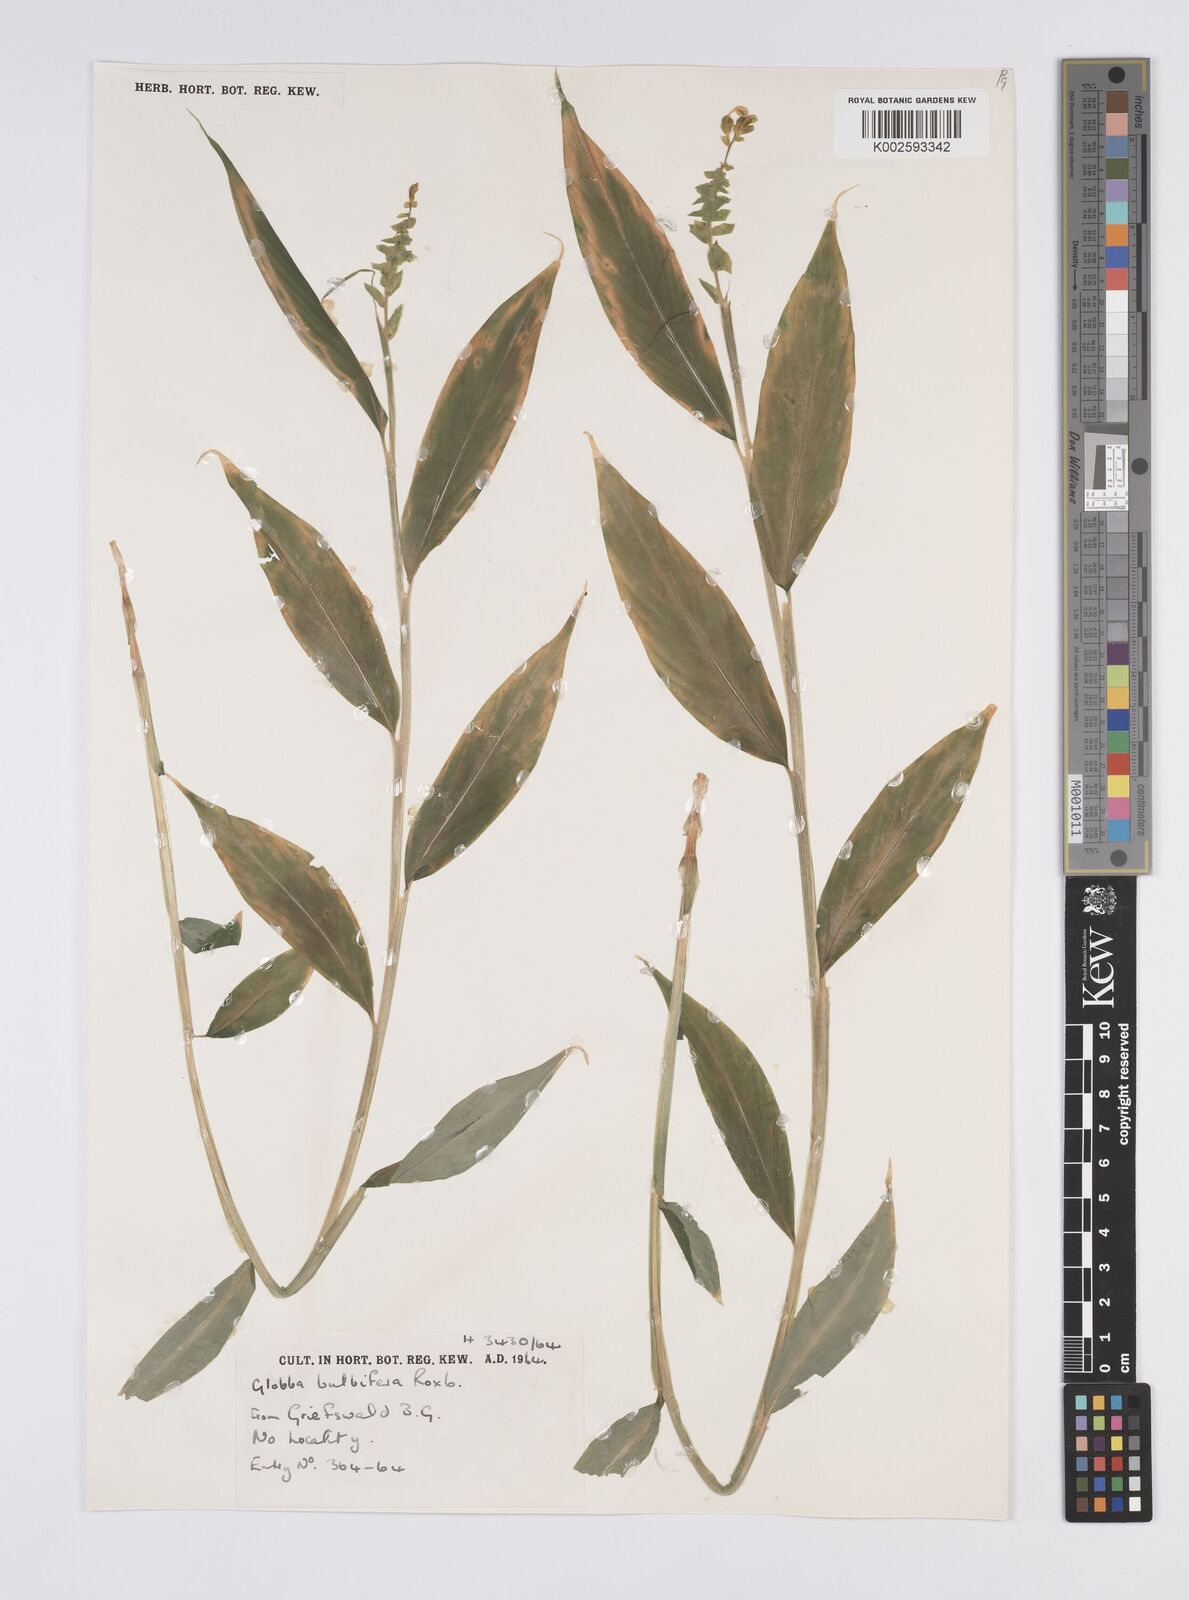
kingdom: Plantae
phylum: Tracheophyta
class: Liliopsida
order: Zingiberales
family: Zingiberaceae
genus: Globba
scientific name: Globba marantina
